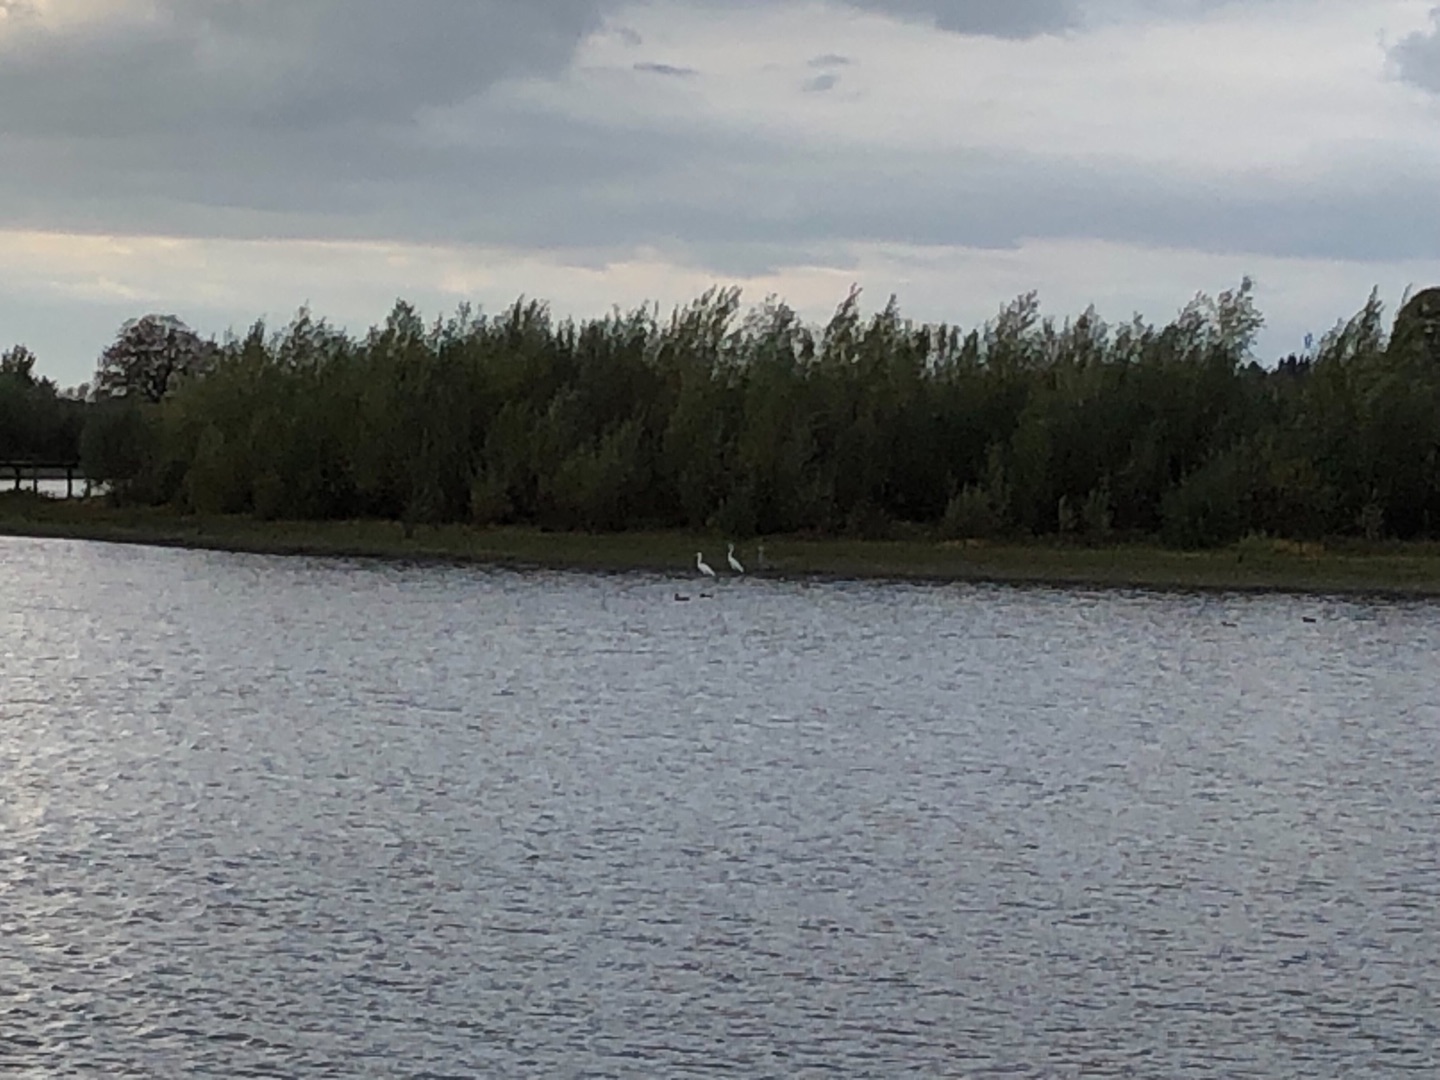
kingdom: Animalia
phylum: Chordata
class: Aves
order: Pelecaniformes
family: Ardeidae
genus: Ardea
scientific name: Ardea alba
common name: Sølvhejre
